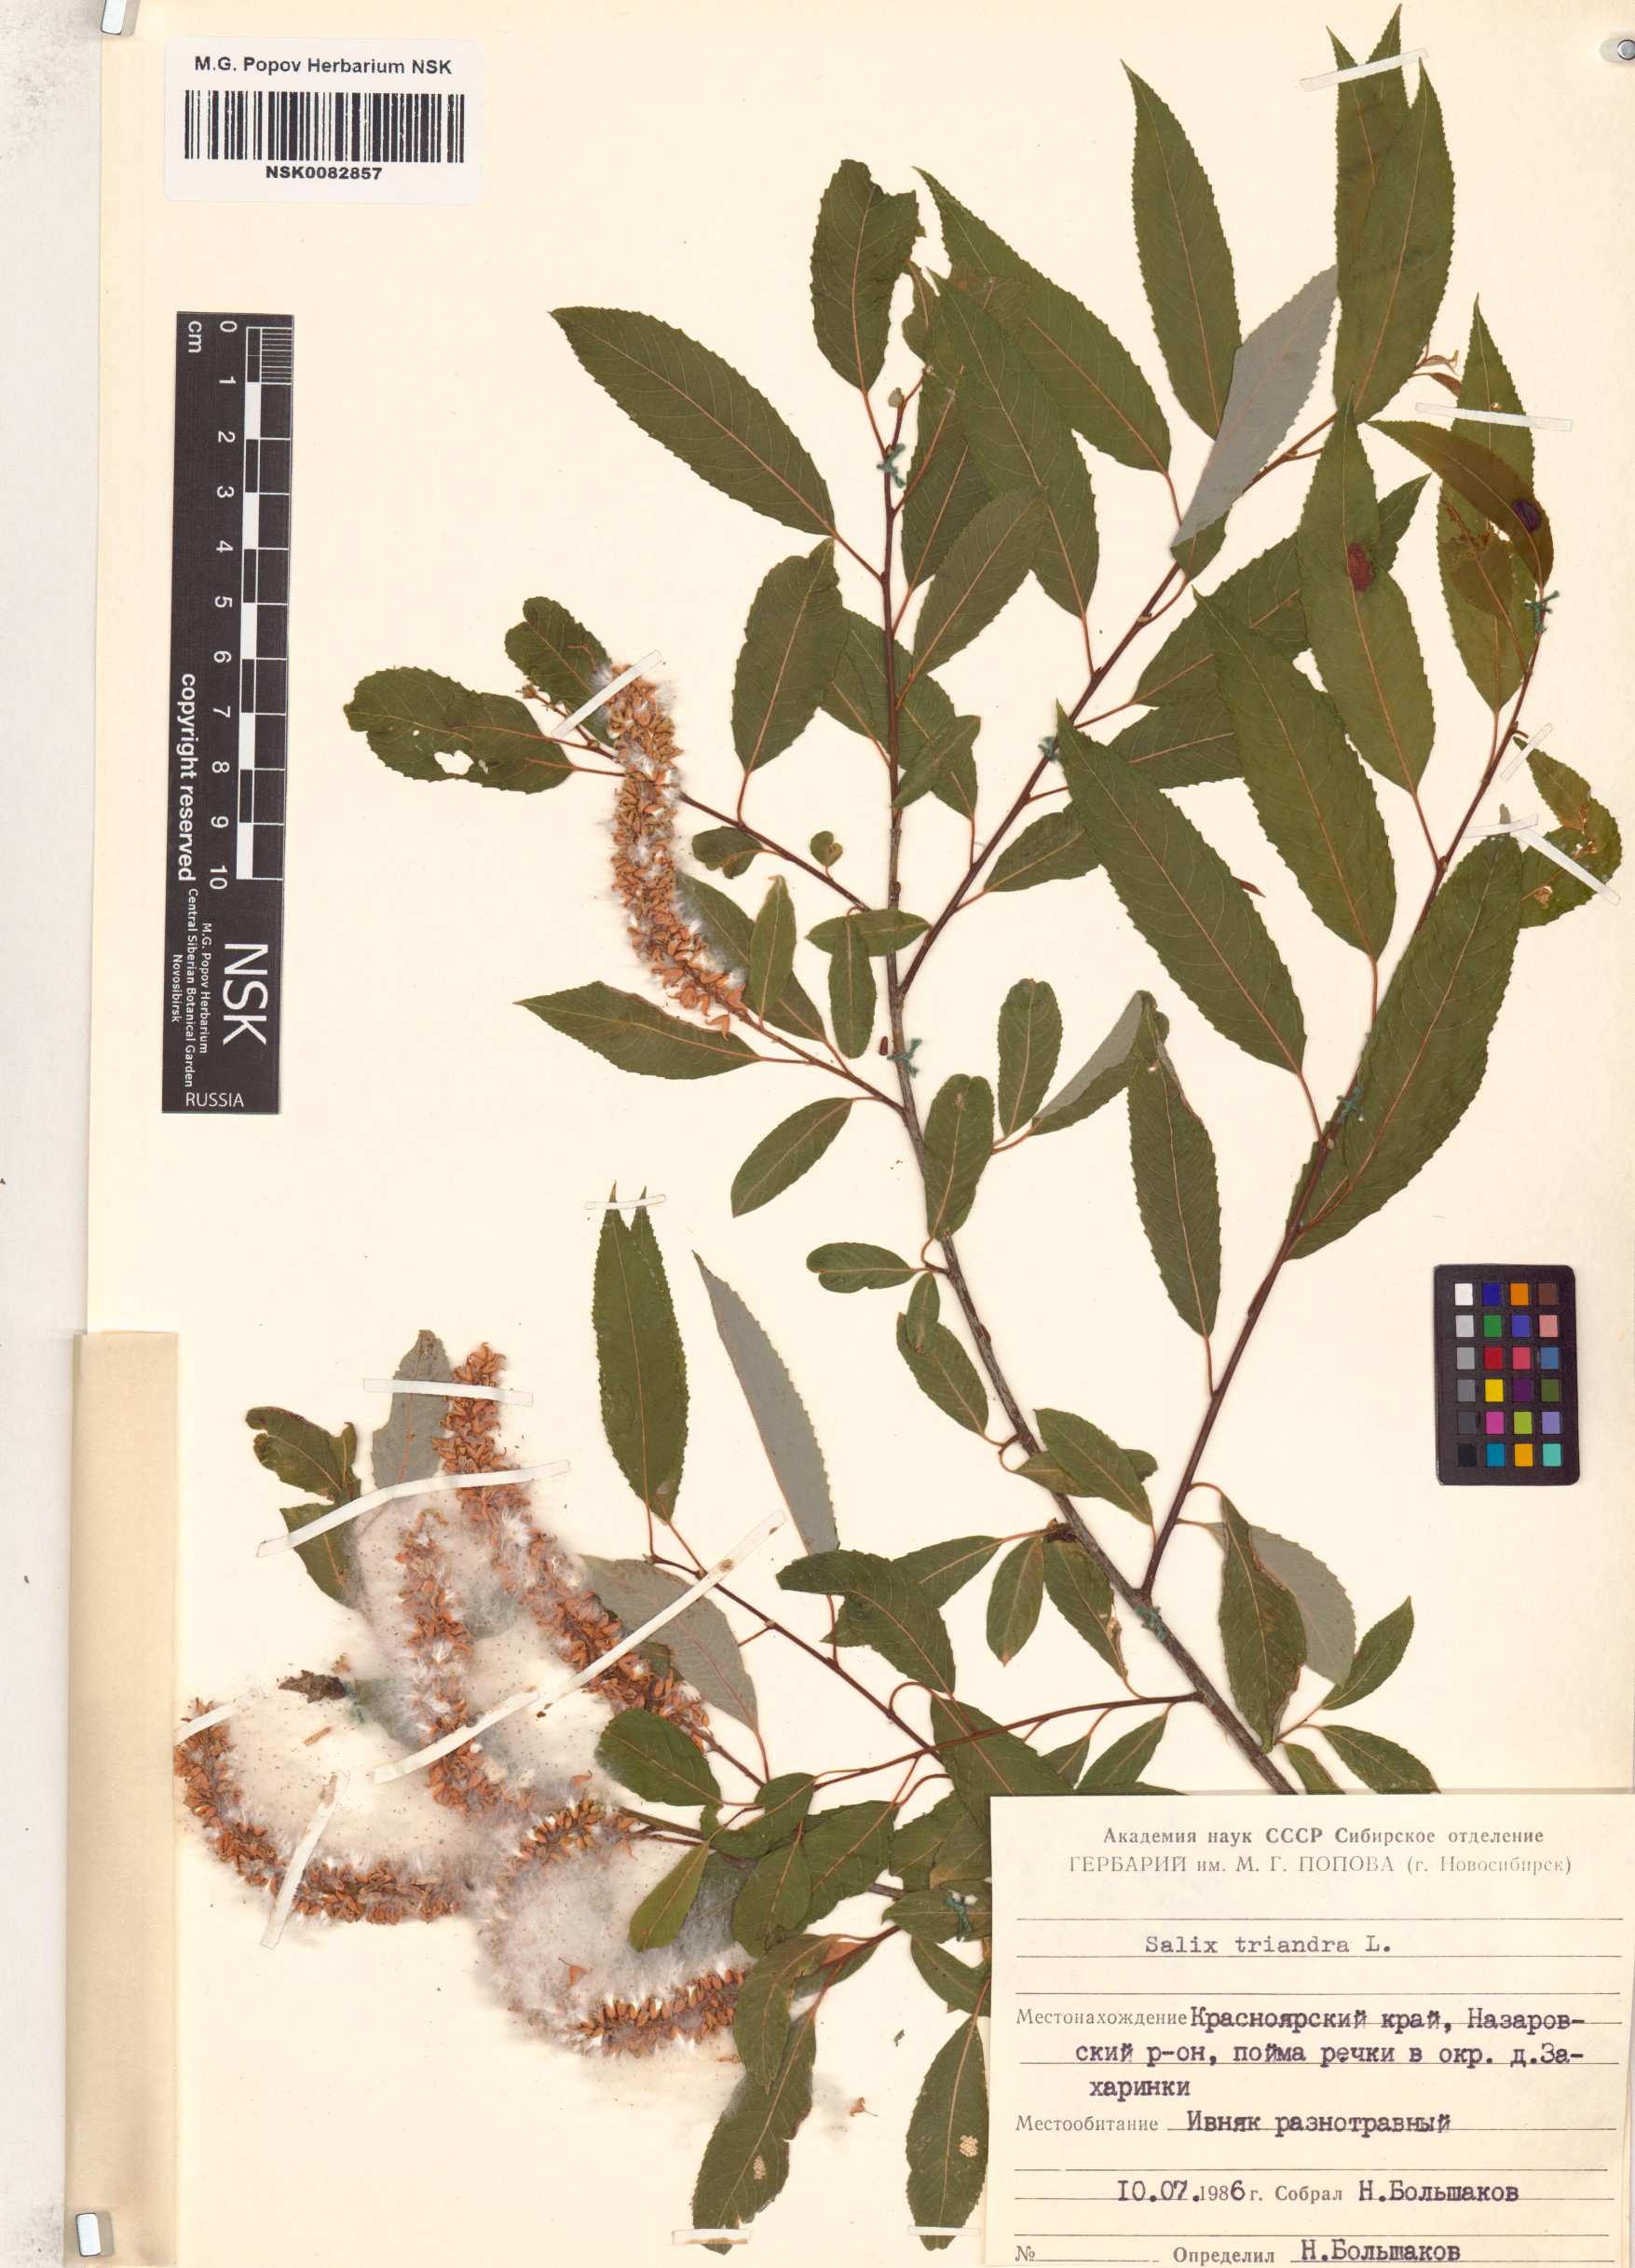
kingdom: Plantae
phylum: Tracheophyta
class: Magnoliopsida
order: Malpighiales
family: Salicaceae
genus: Salix
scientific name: Salix triandra
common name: Almond willow
